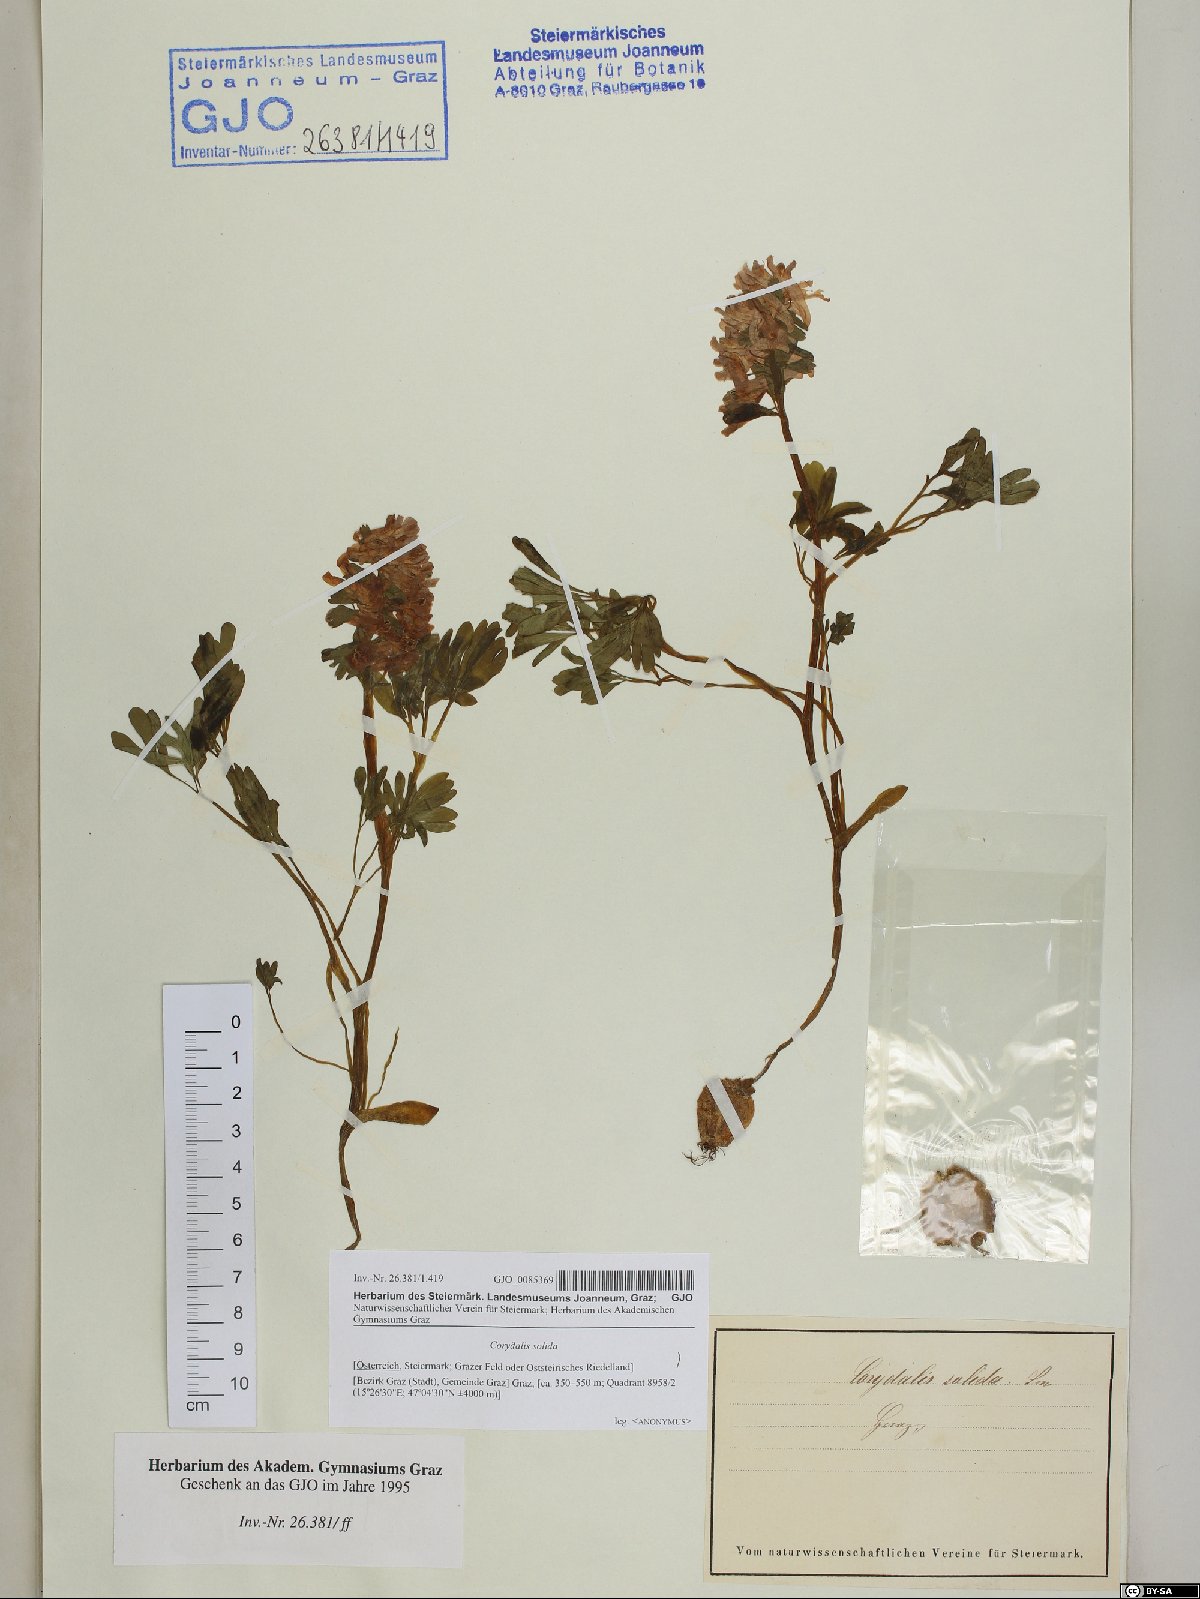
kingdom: Plantae
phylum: Tracheophyta
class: Magnoliopsida
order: Ranunculales
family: Papaveraceae
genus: Corydalis
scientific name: Corydalis solida
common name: Bird-in-a-bush
